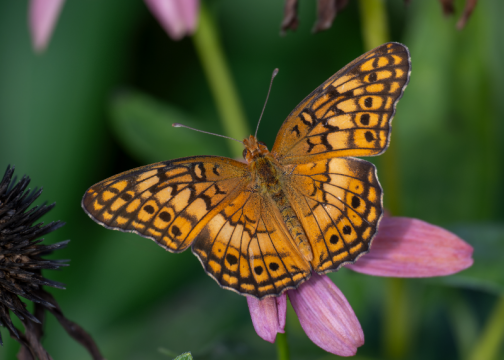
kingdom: Animalia
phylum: Arthropoda
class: Insecta
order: Lepidoptera
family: Nymphalidae
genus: Euptoieta
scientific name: Euptoieta claudia
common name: Variegated Fritillary
